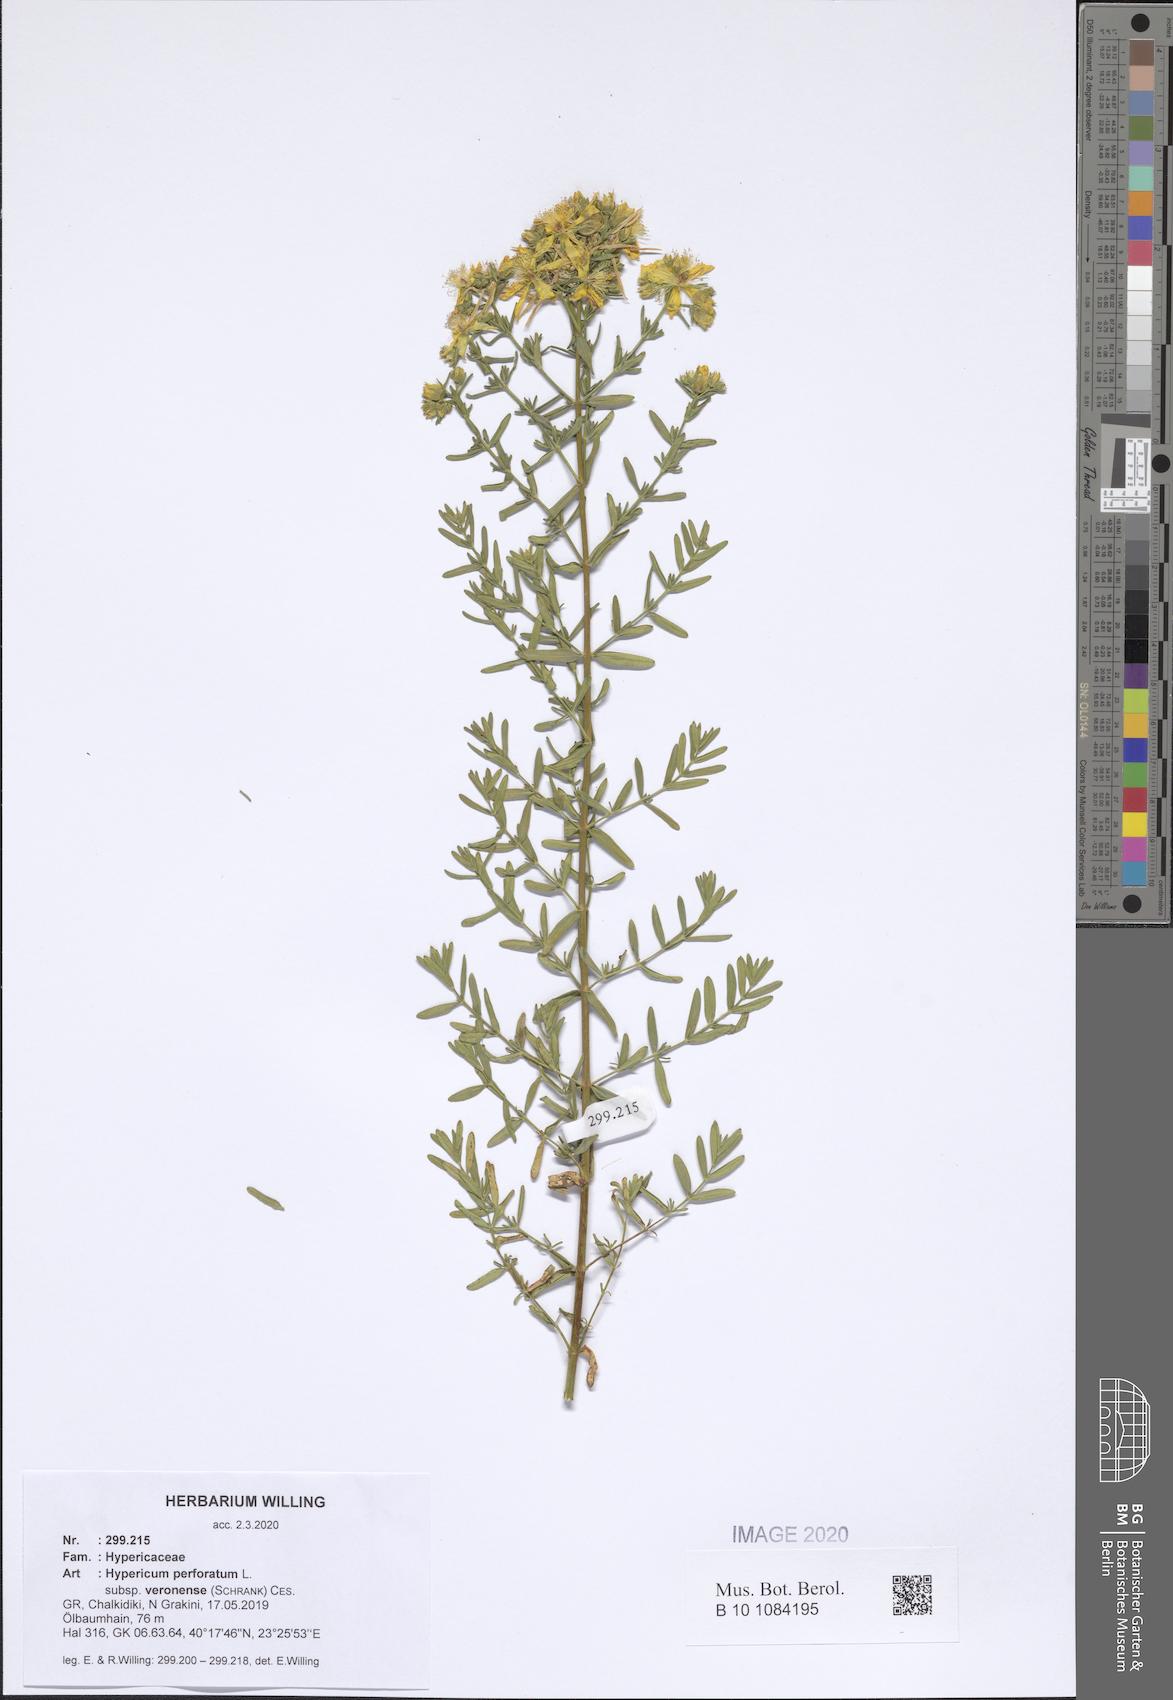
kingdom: Plantae
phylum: Tracheophyta
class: Magnoliopsida
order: Malpighiales
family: Hypericaceae
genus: Hypericum
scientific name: Hypericum veronense
